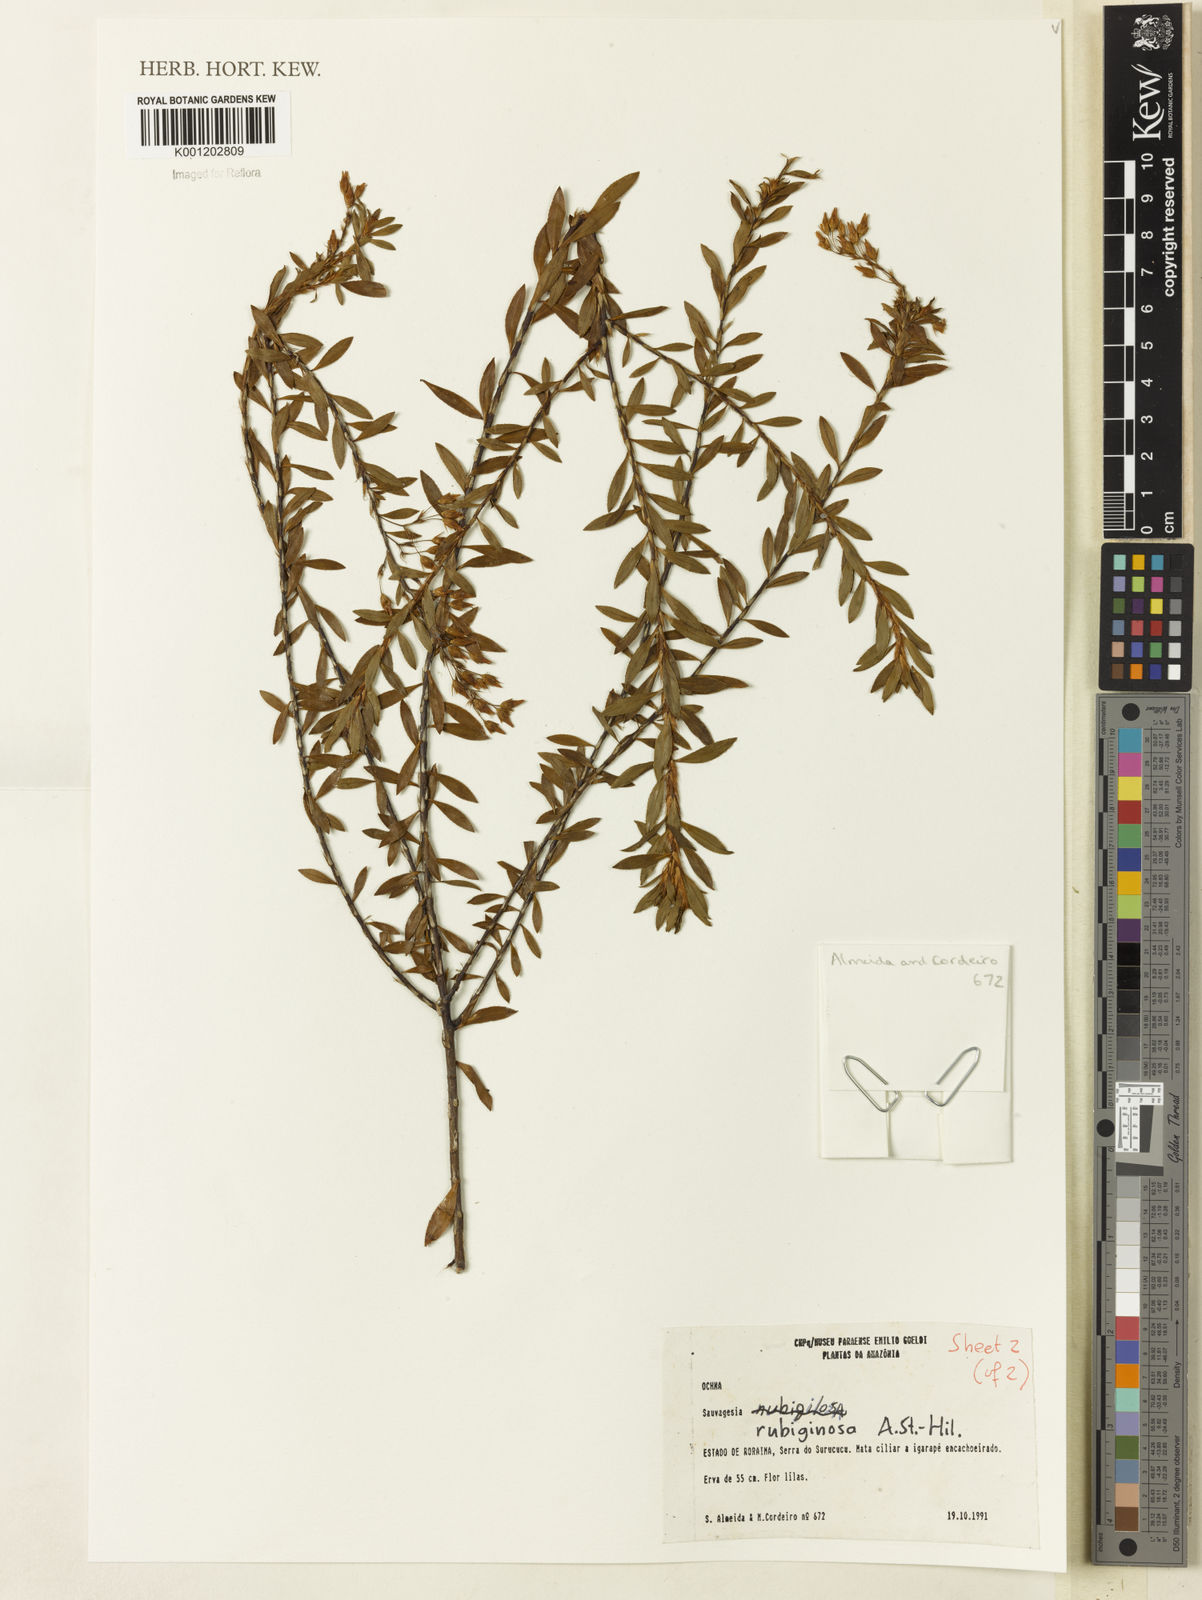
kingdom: Plantae
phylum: Tracheophyta
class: Magnoliopsida
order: Malpighiales
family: Ochnaceae
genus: Sauvagesia
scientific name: Sauvagesia rubiginosa
